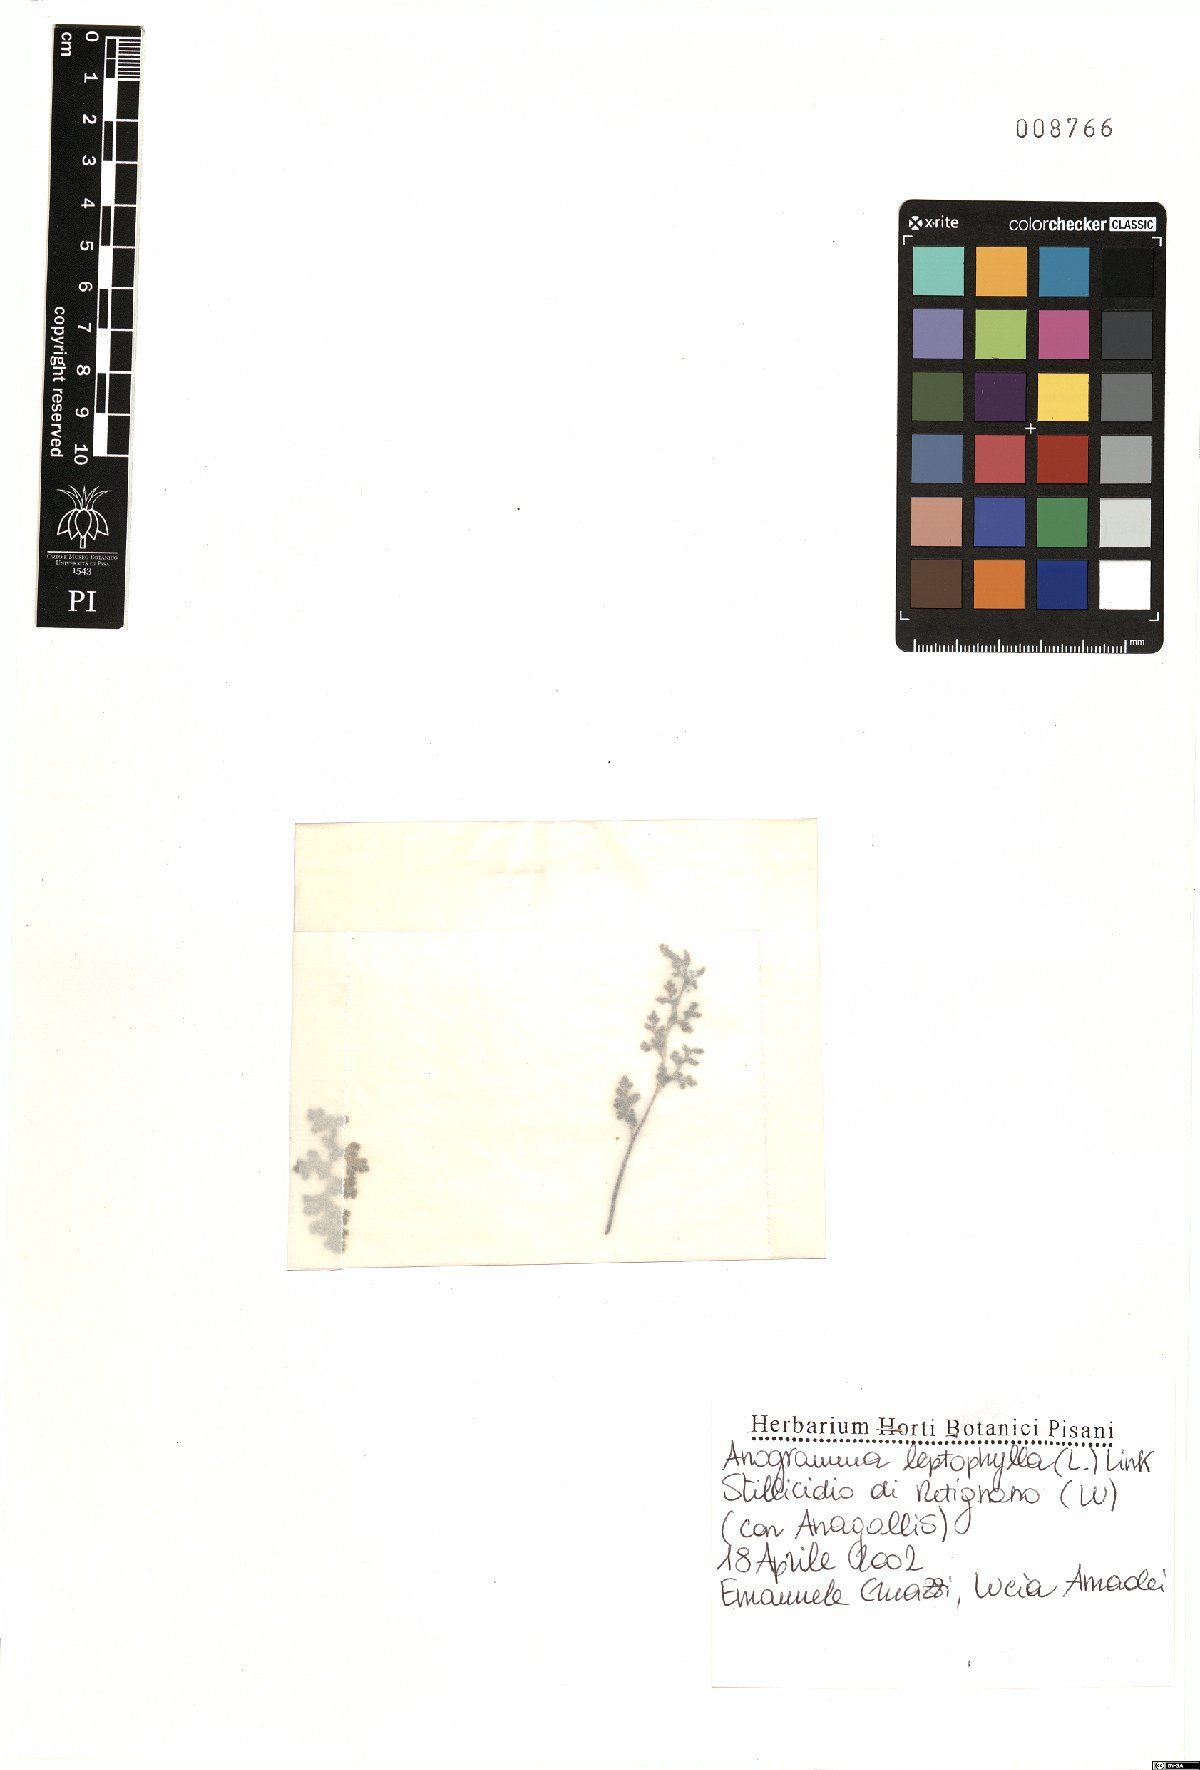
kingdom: Plantae
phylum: Tracheophyta
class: Polypodiopsida
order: Polypodiales
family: Pteridaceae
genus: Anogramma
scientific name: Anogramma leptophylla
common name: Jersey fern
